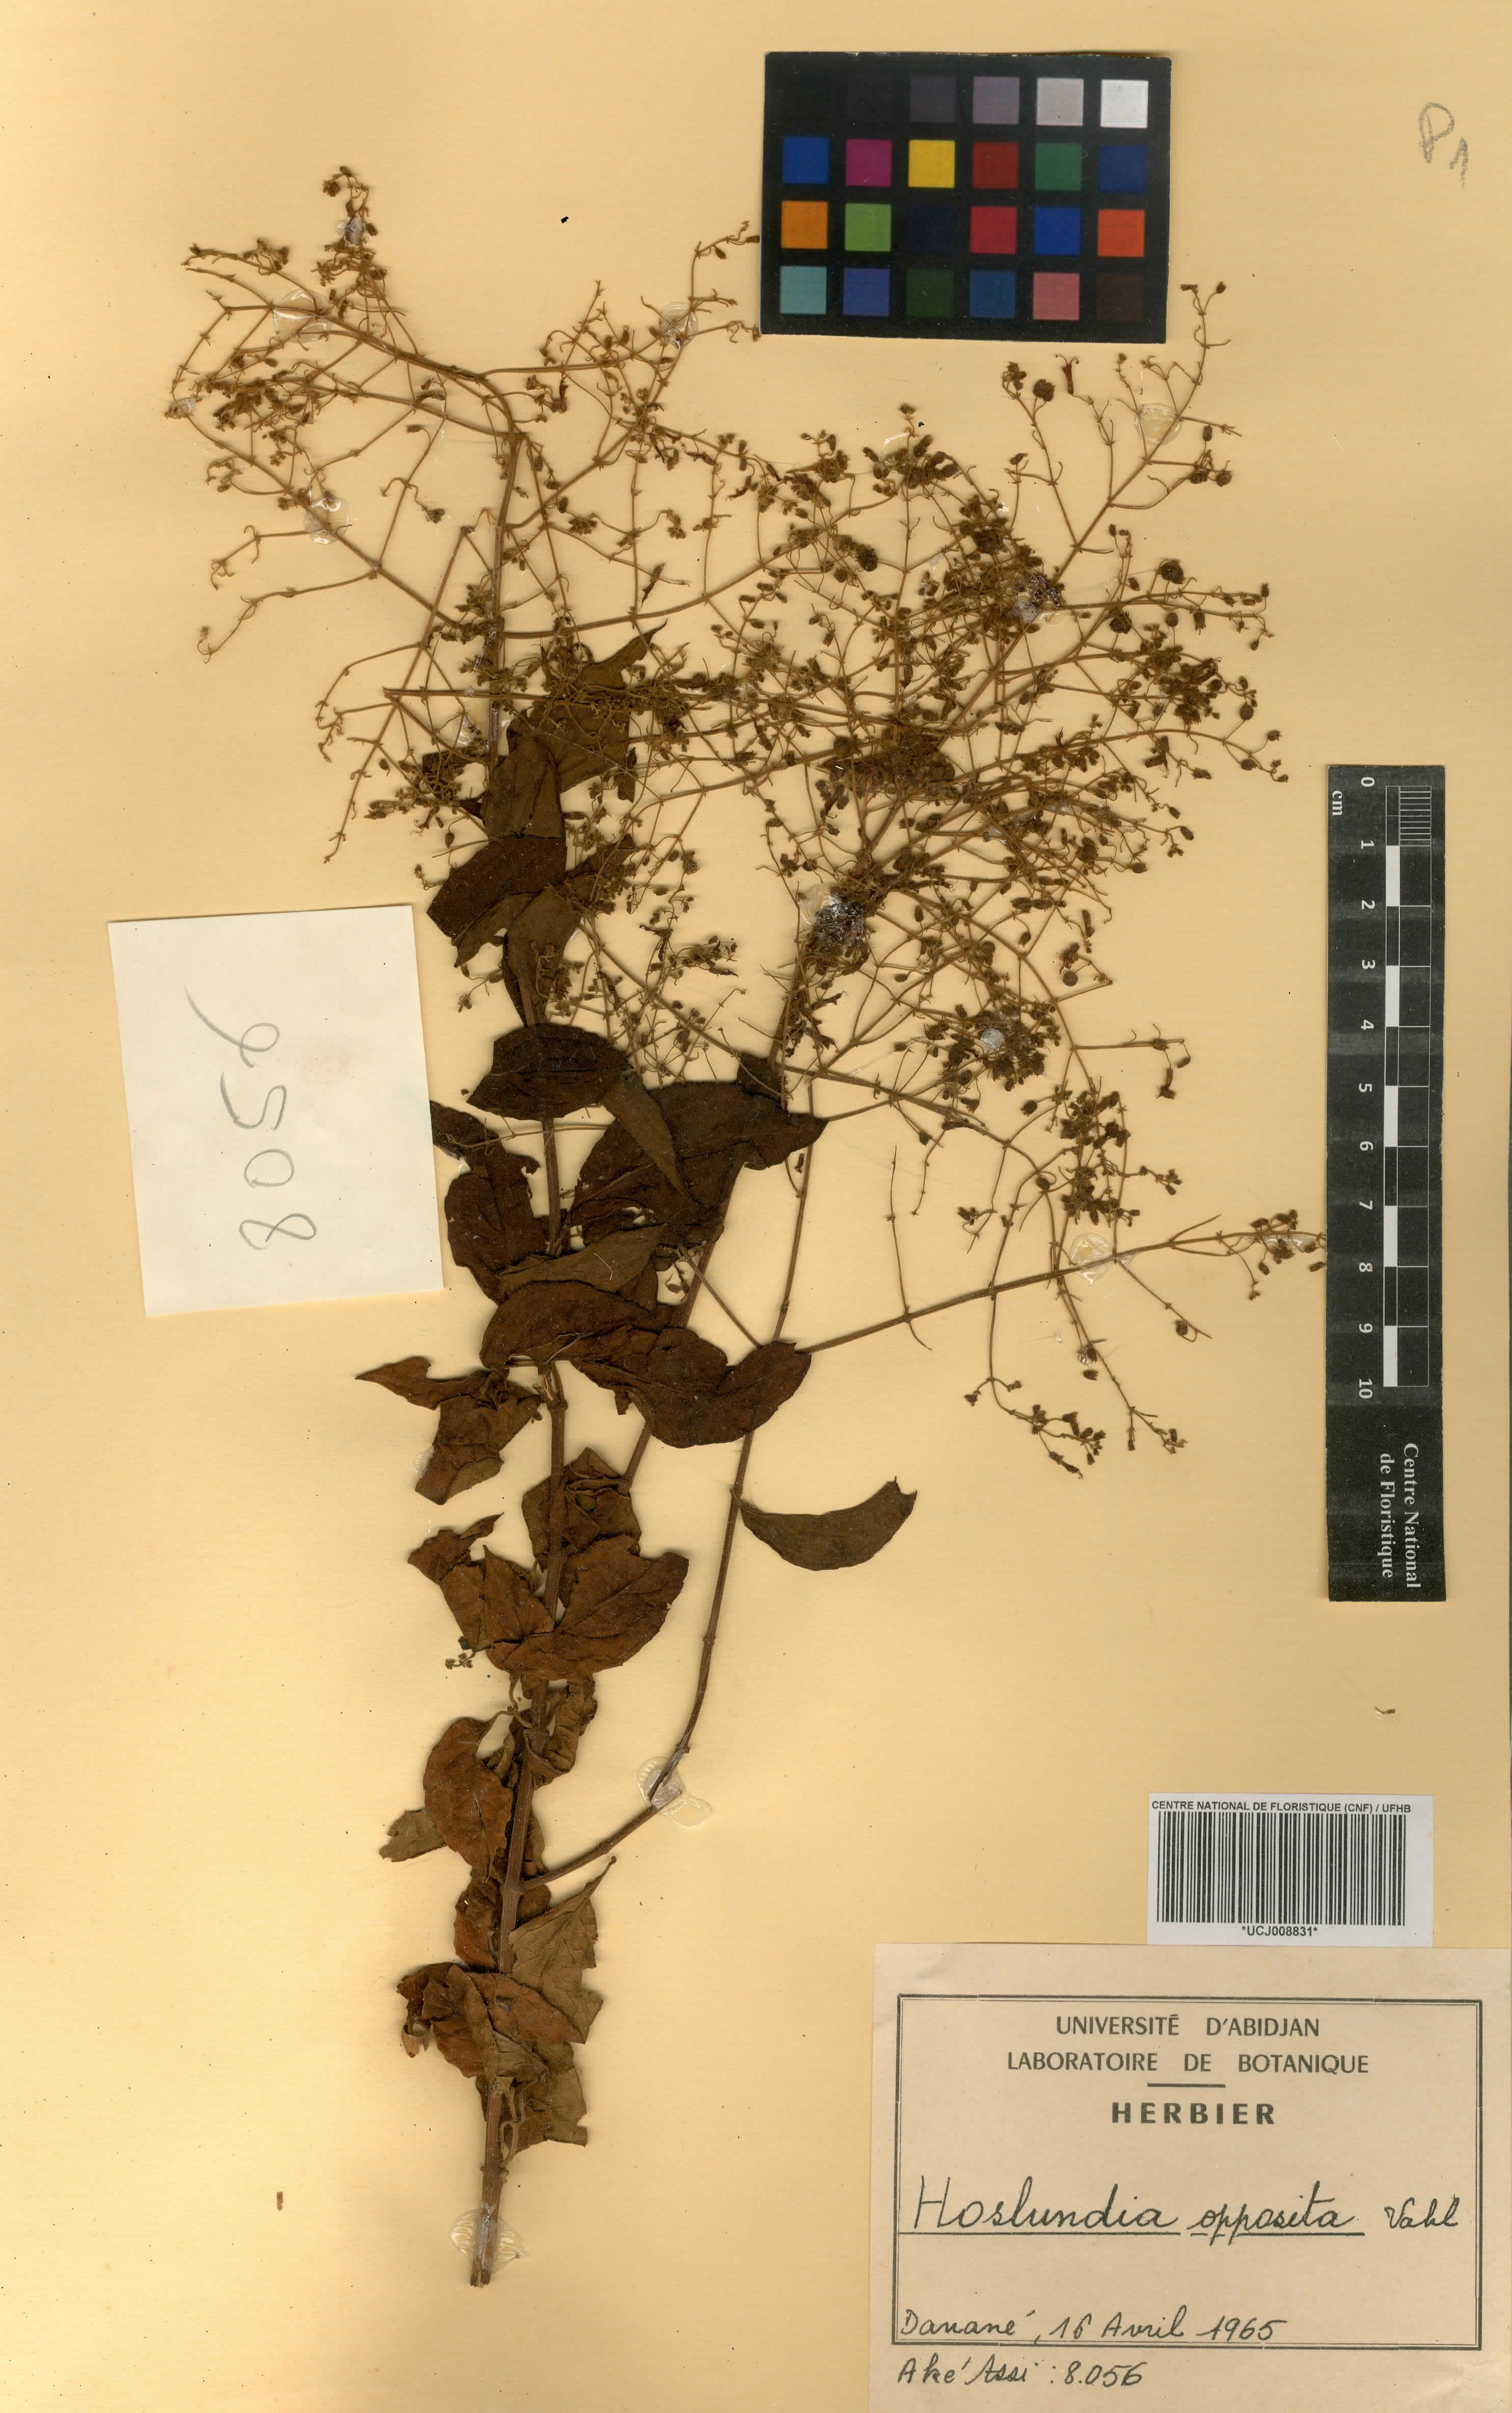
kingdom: Plantae
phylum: Tracheophyta
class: Magnoliopsida
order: Lamiales
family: Lamiaceae
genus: Hoslundia
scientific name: Hoslundia opposita
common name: Kamyuye
